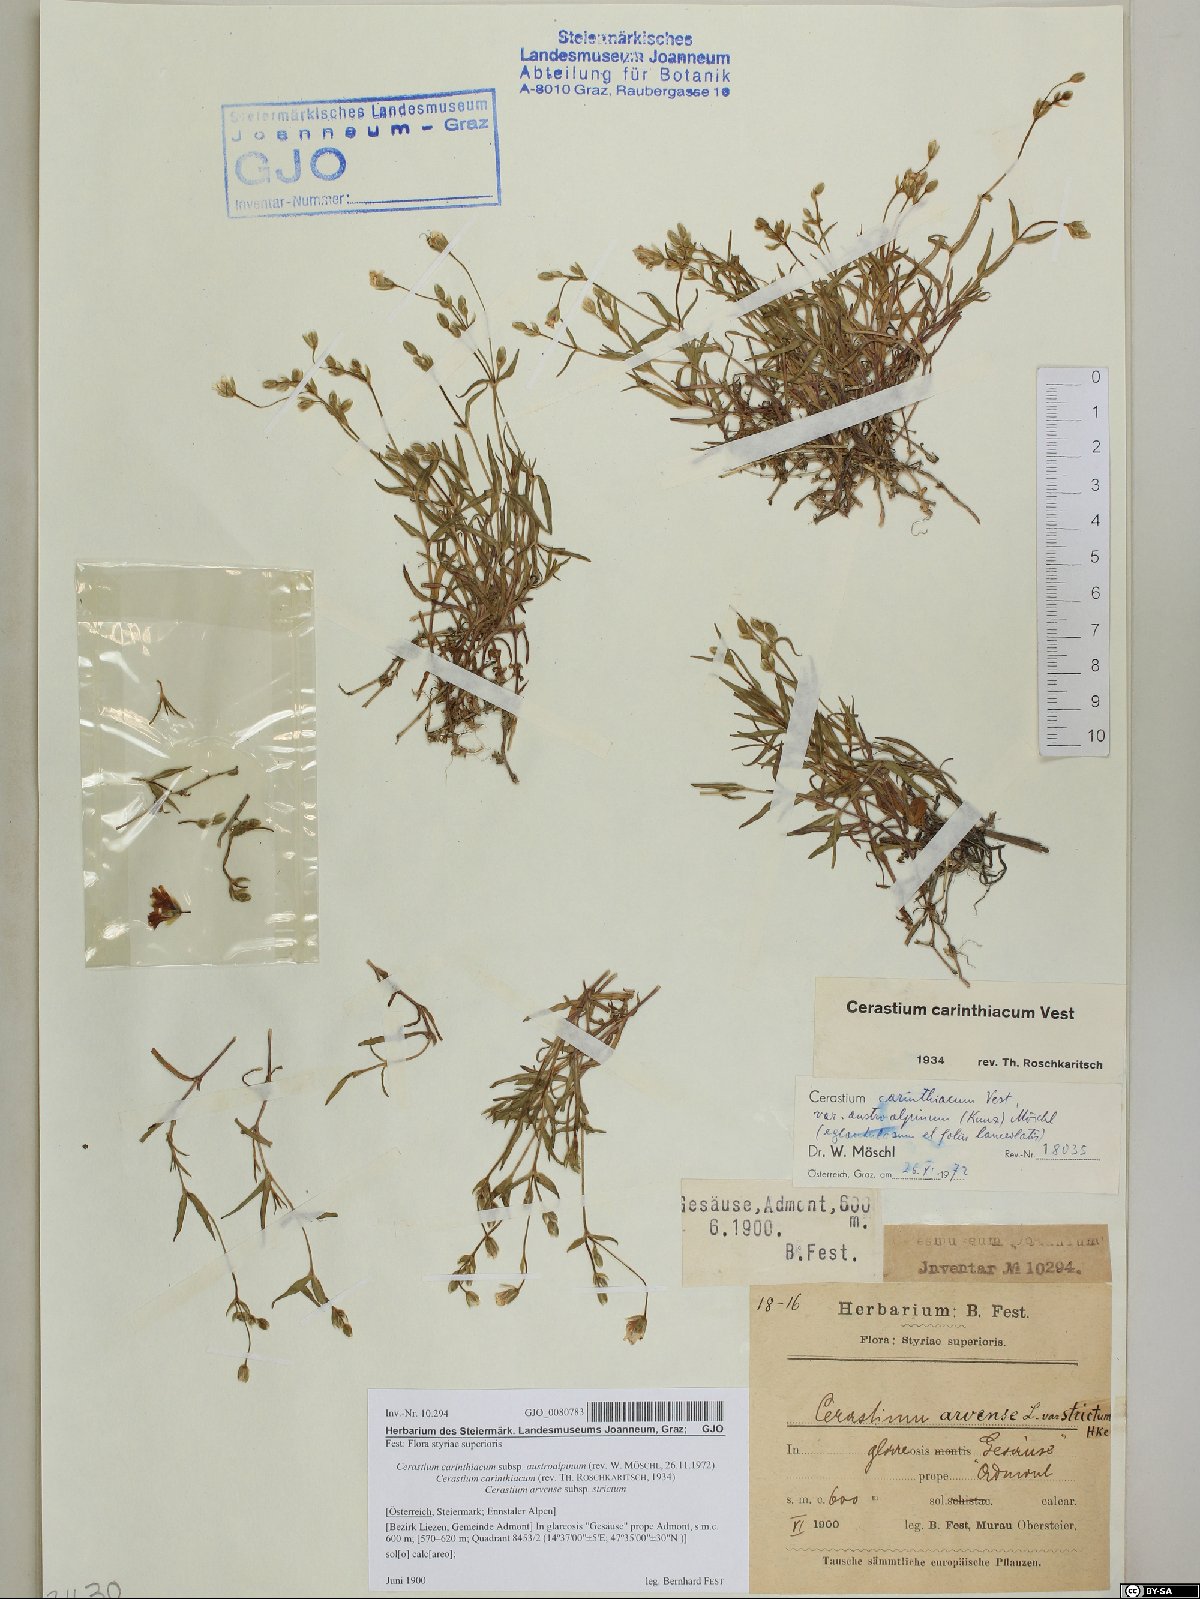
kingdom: Plantae
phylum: Tracheophyta
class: Magnoliopsida
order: Caryophyllales
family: Caryophyllaceae
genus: Cerastium
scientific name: Cerastium carinthiacum
